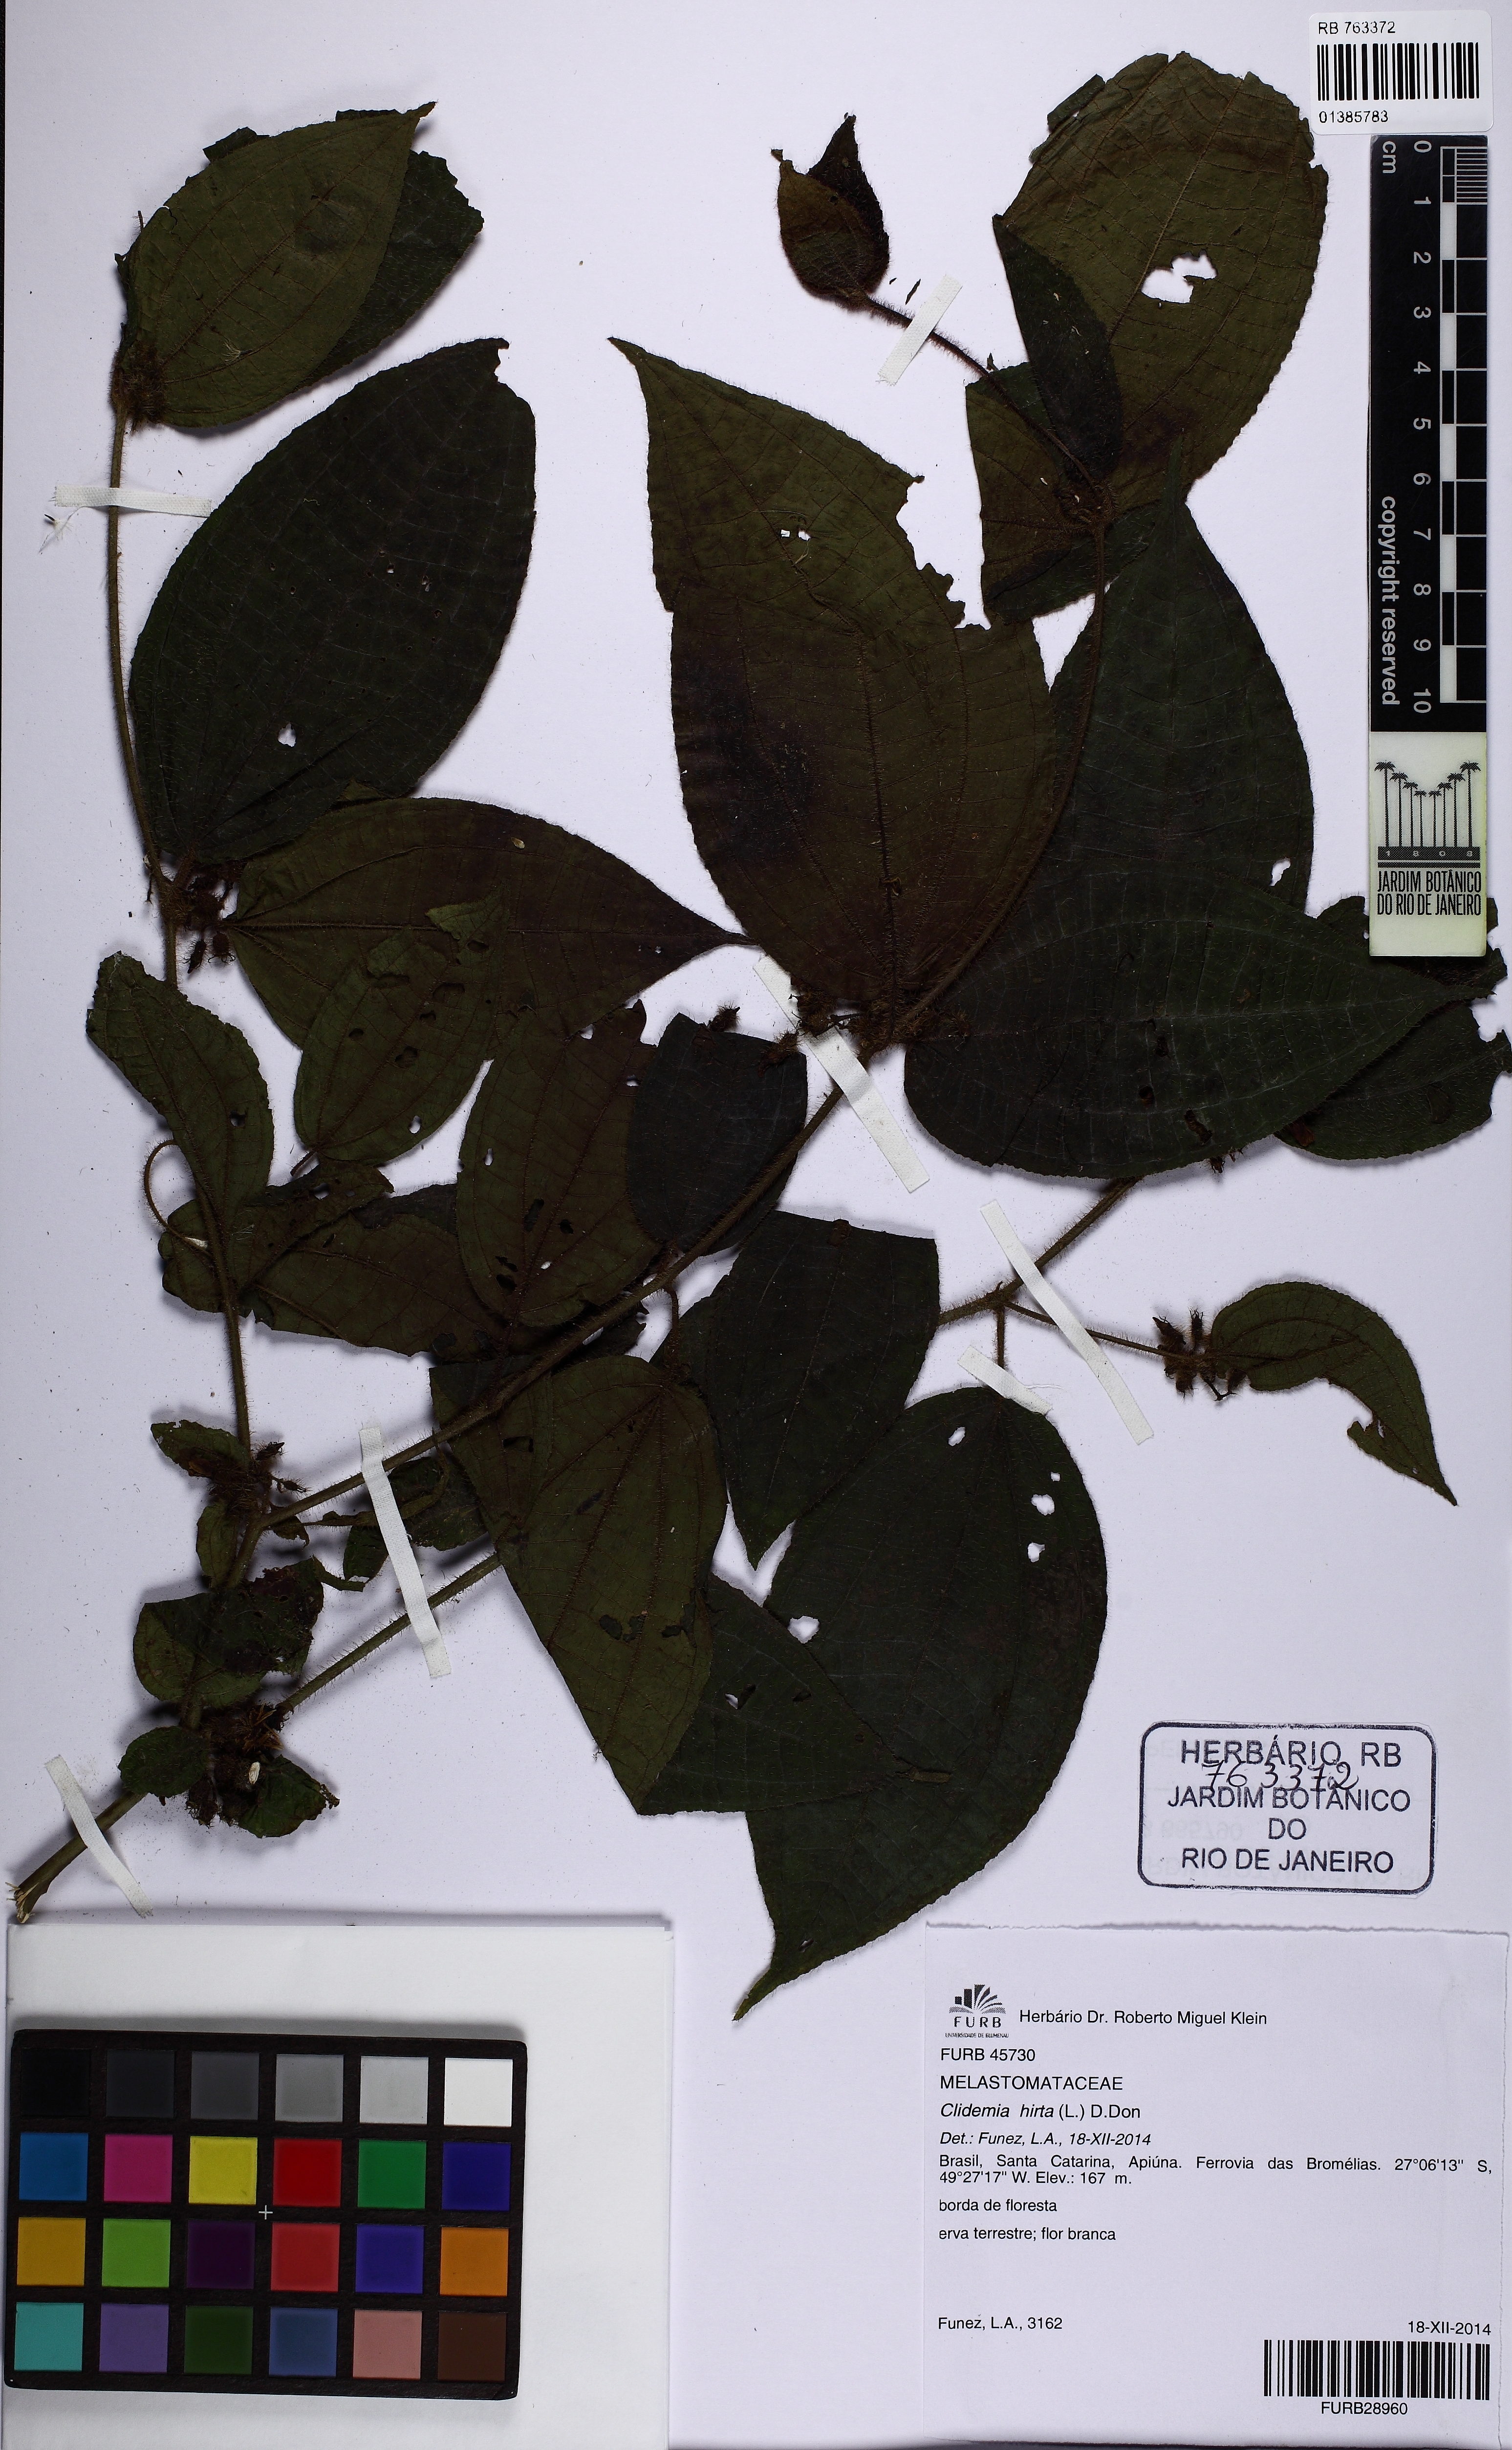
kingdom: Plantae
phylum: Tracheophyta
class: Magnoliopsida
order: Myrtales
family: Melastomataceae
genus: Miconia
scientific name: Miconia crenata
